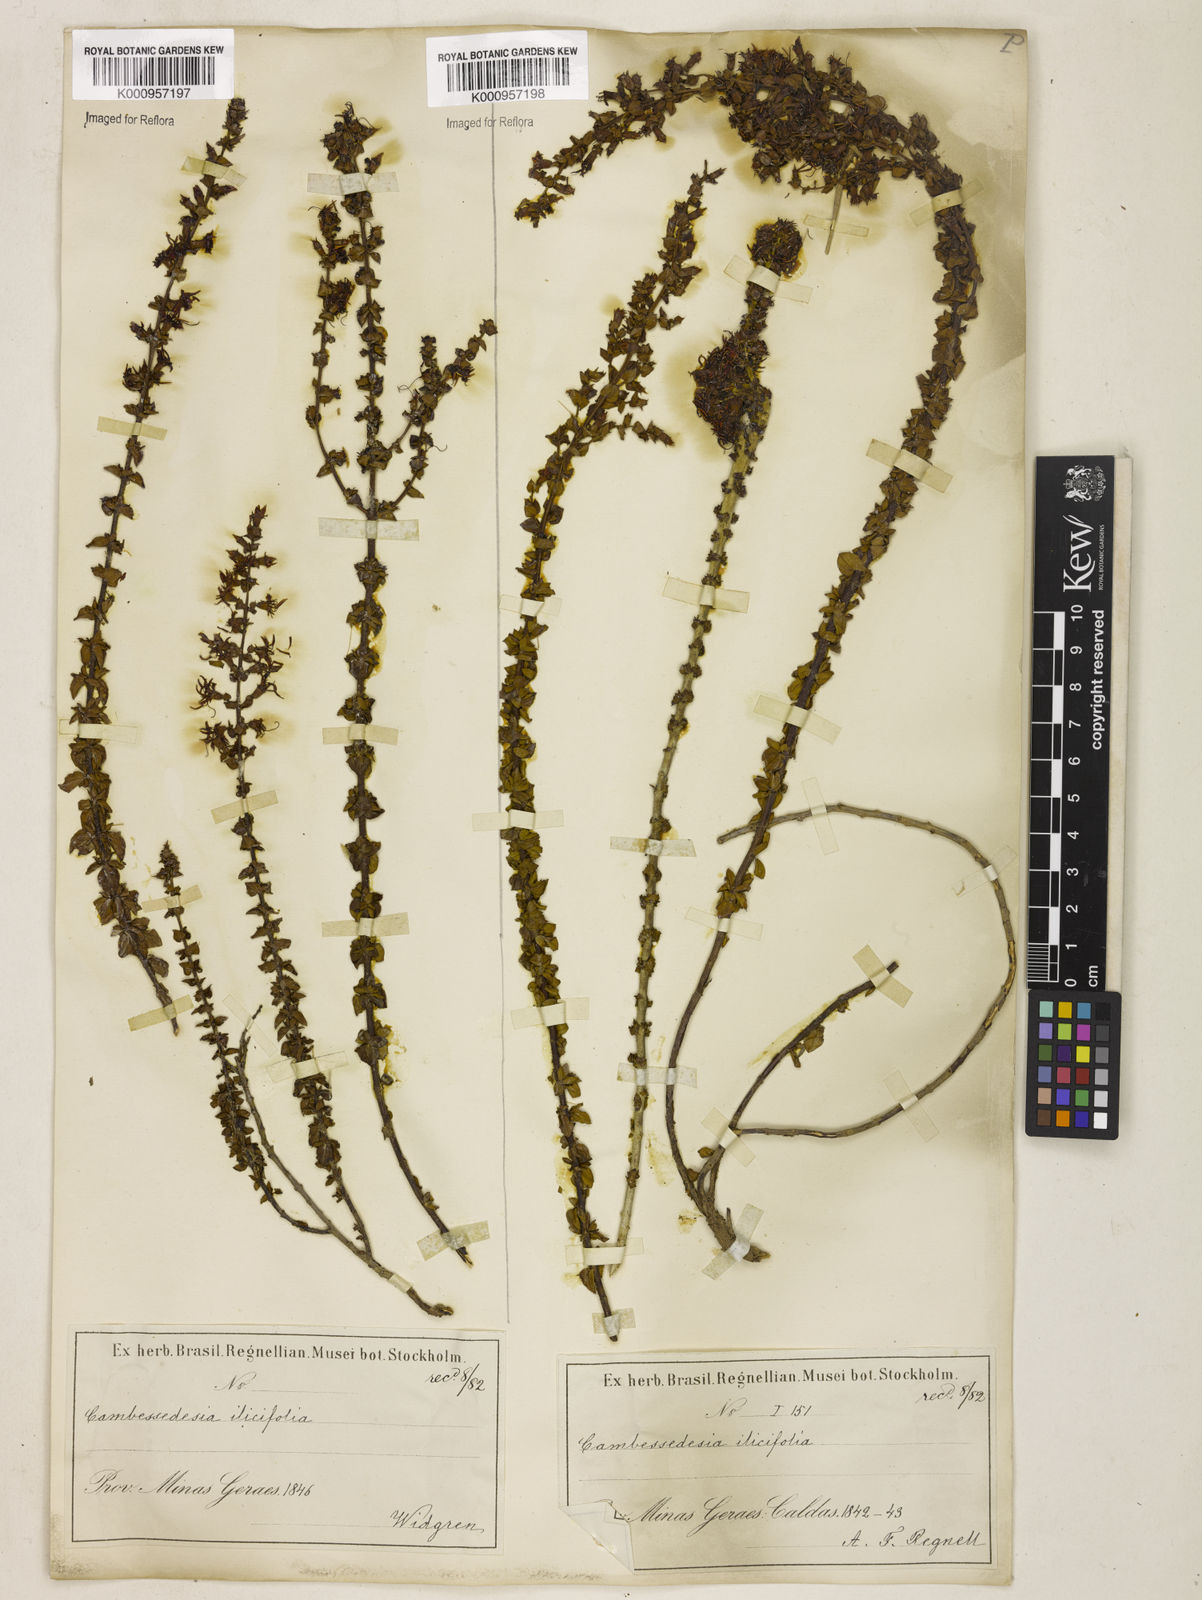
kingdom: Plantae
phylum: Tracheophyta
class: Magnoliopsida
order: Myrtales
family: Melastomataceae
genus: Cambessedesia
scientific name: Cambessedesia espora
